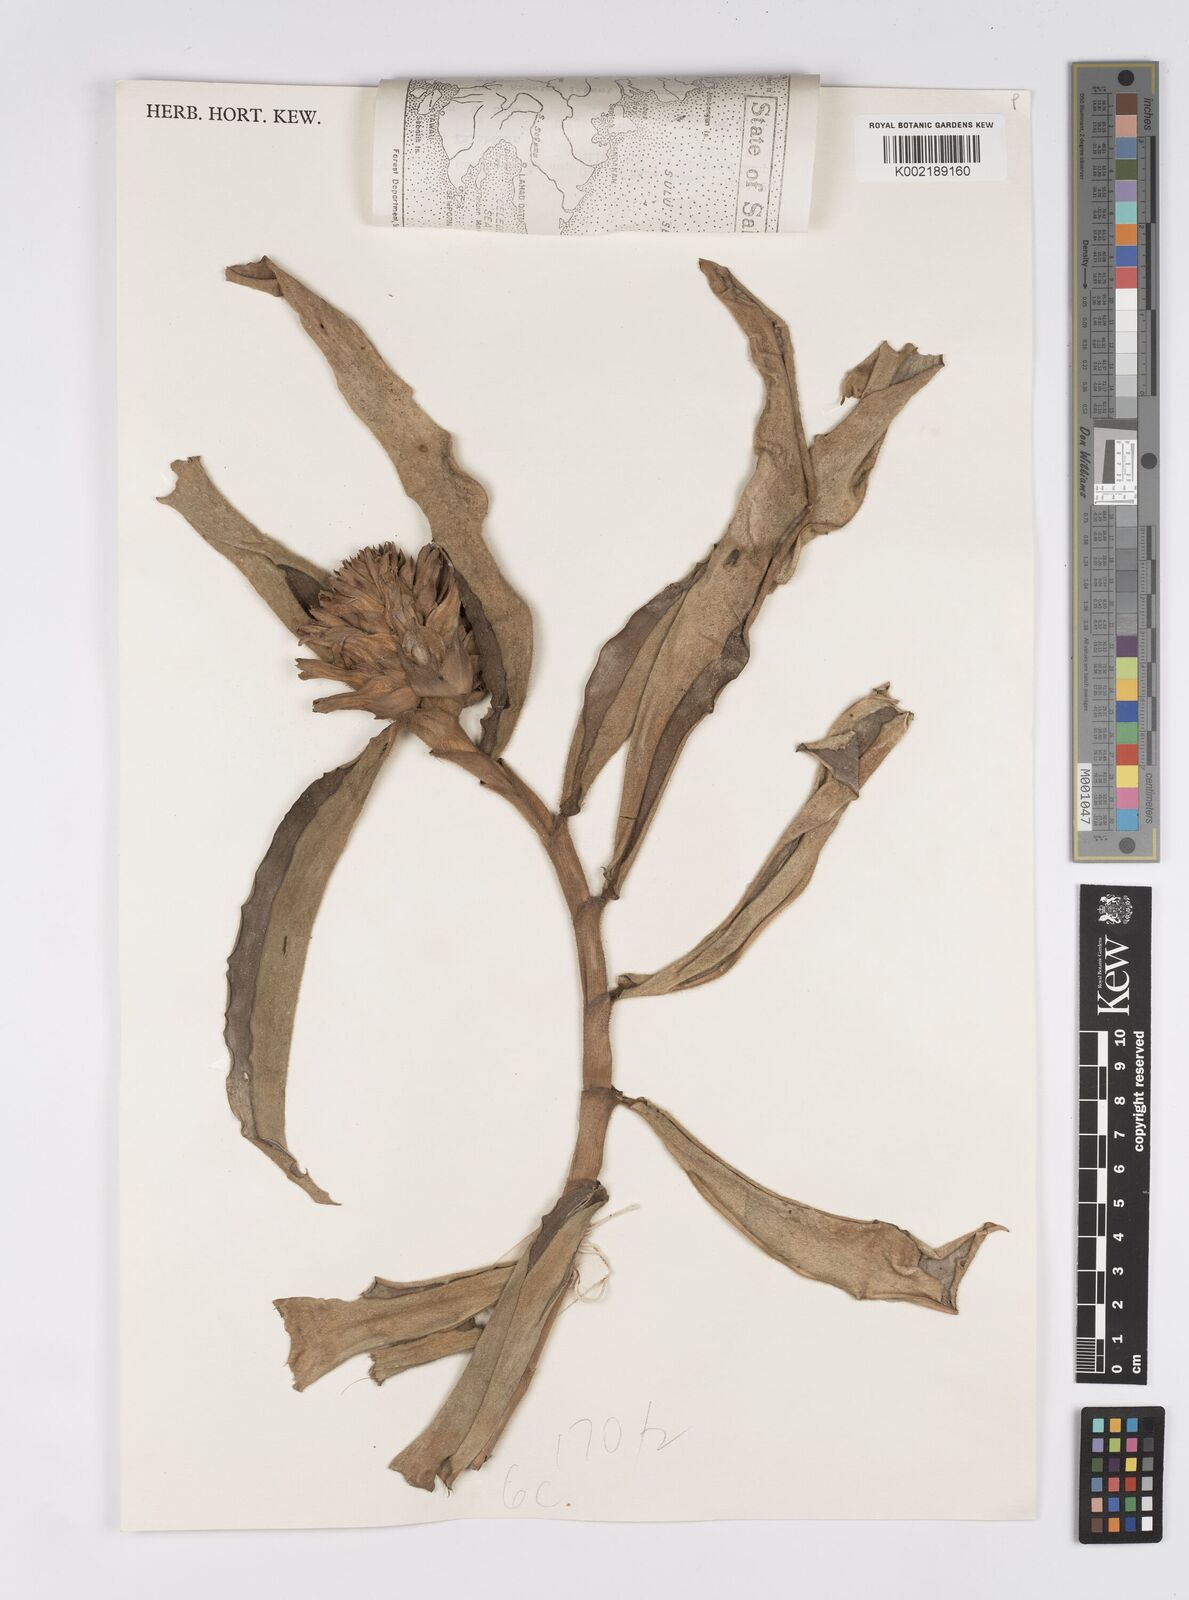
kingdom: Plantae
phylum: Tracheophyta
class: Liliopsida
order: Zingiberales
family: Costaceae
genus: Hellenia
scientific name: Hellenia speciosa
